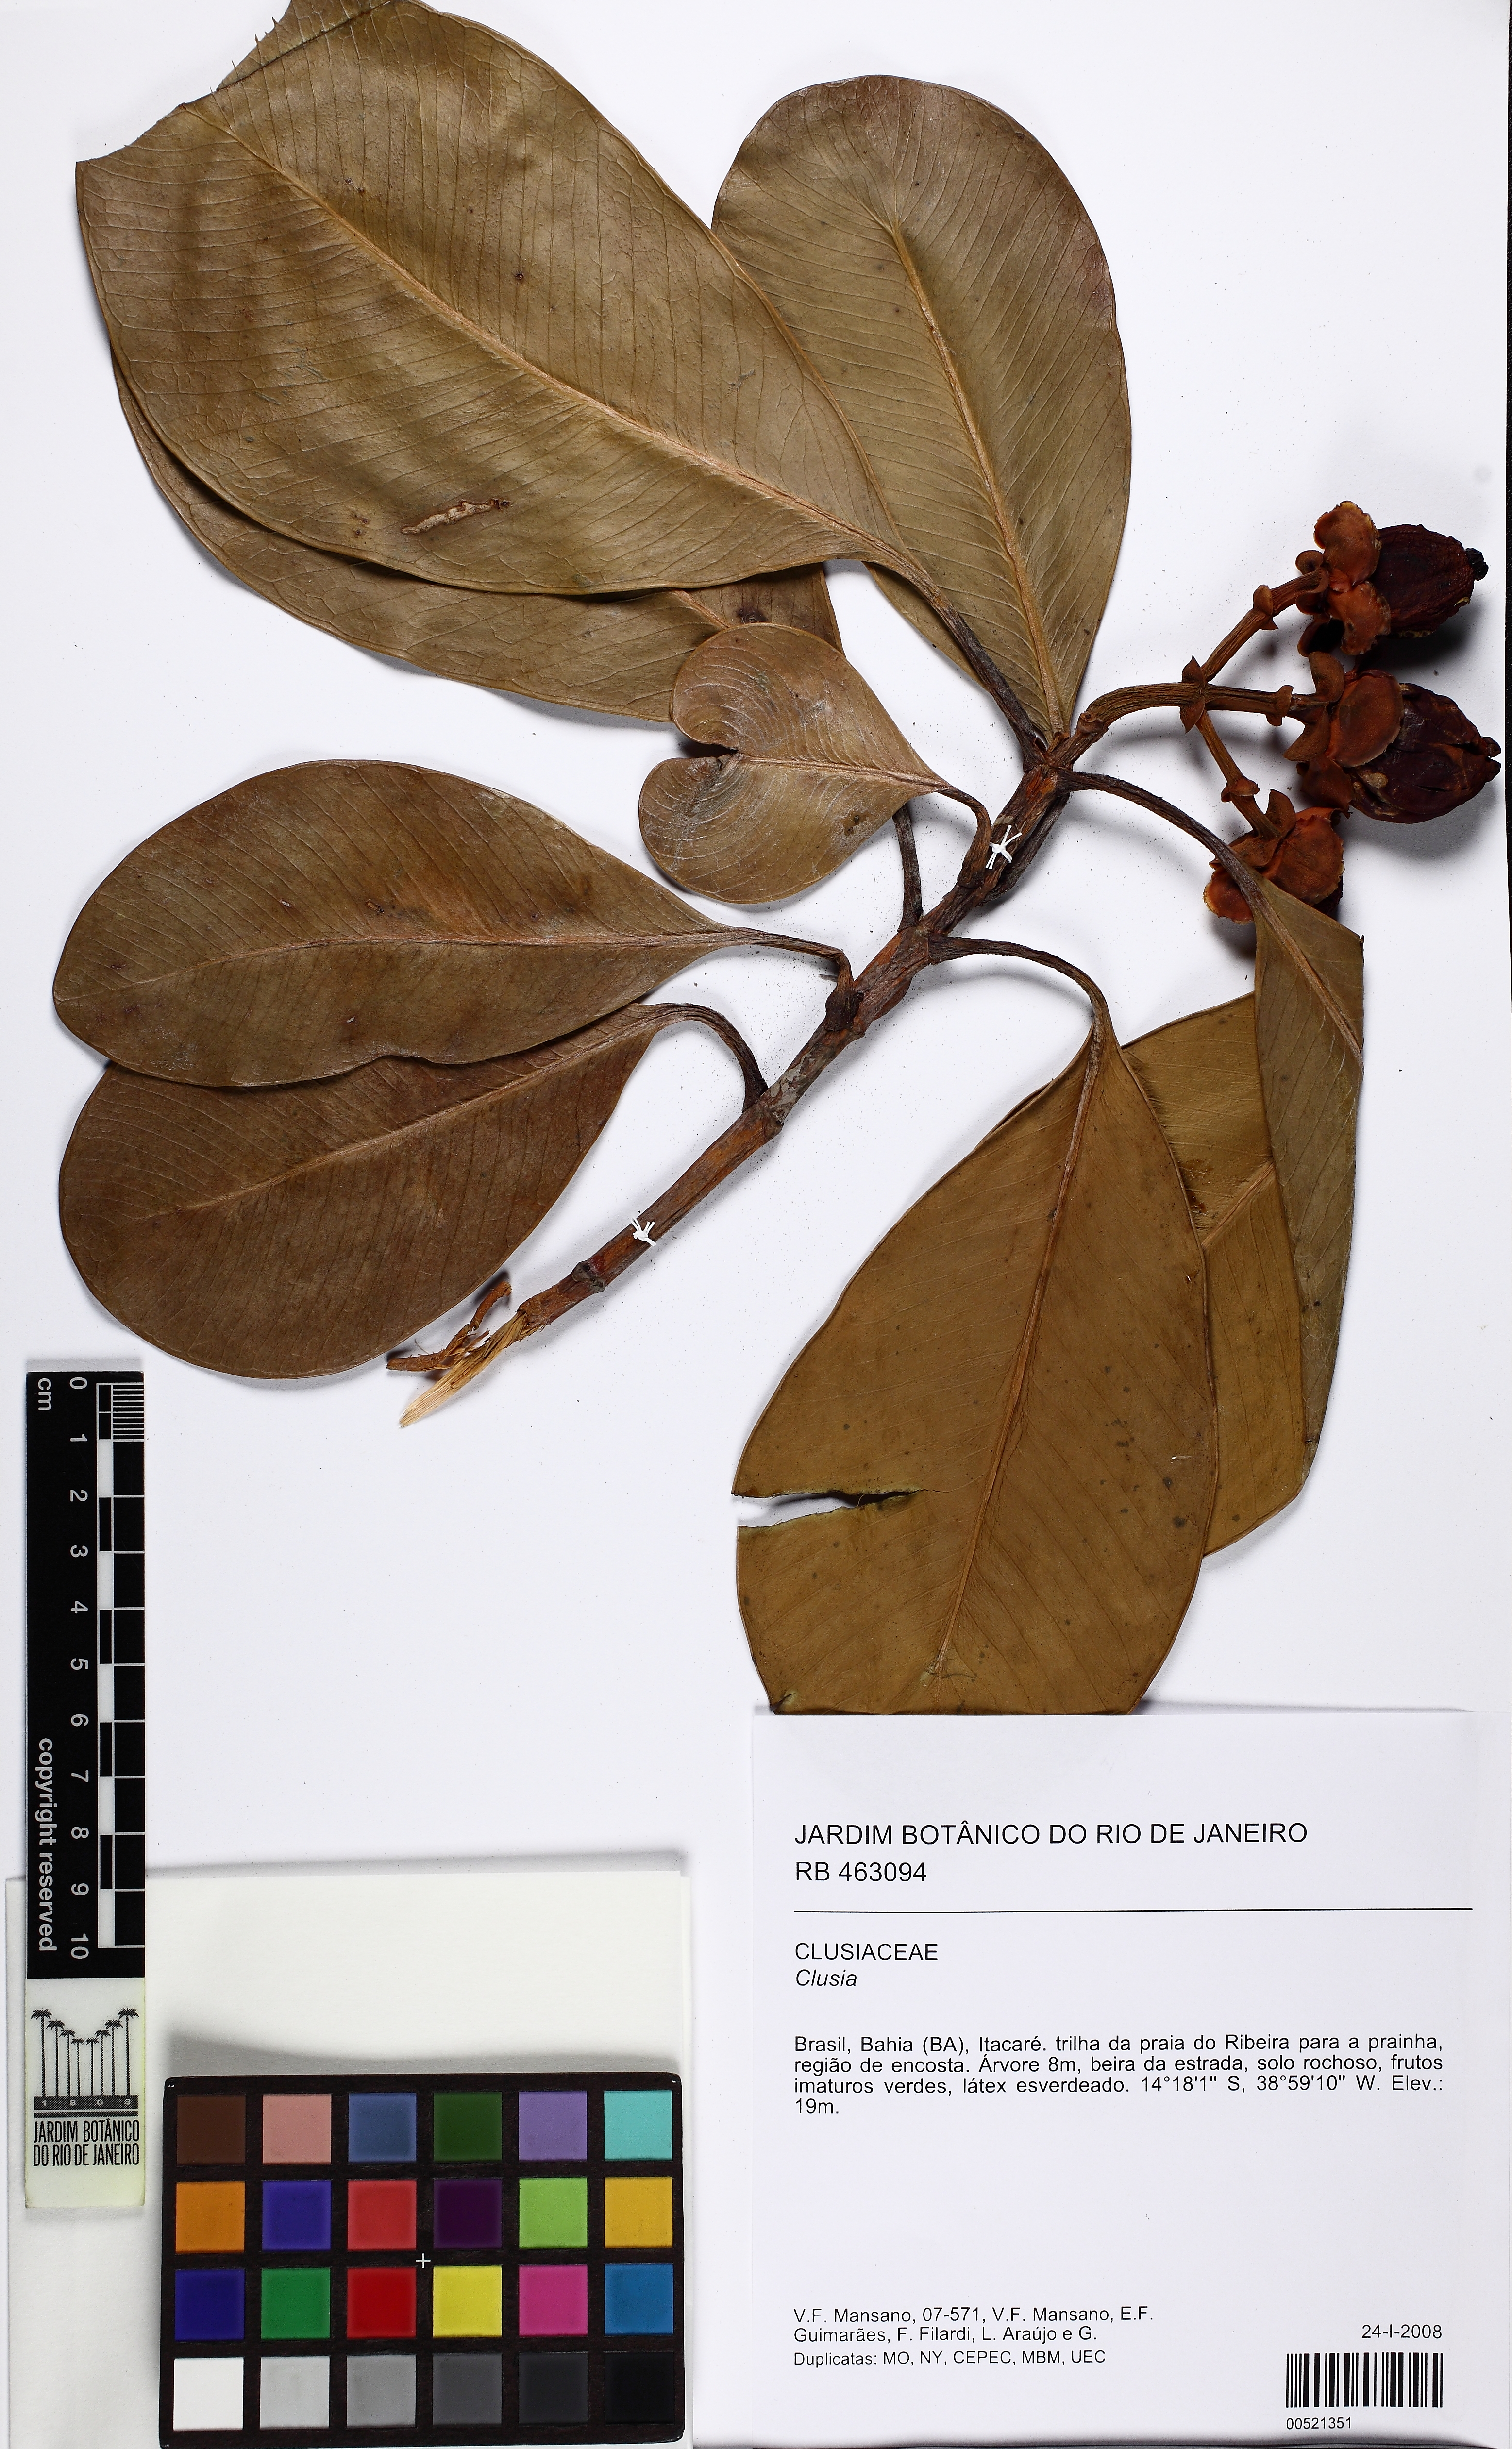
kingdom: Plantae
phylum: Tracheophyta
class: Magnoliopsida
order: Malpighiales
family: Clusiaceae
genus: Clusia
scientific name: Clusia
